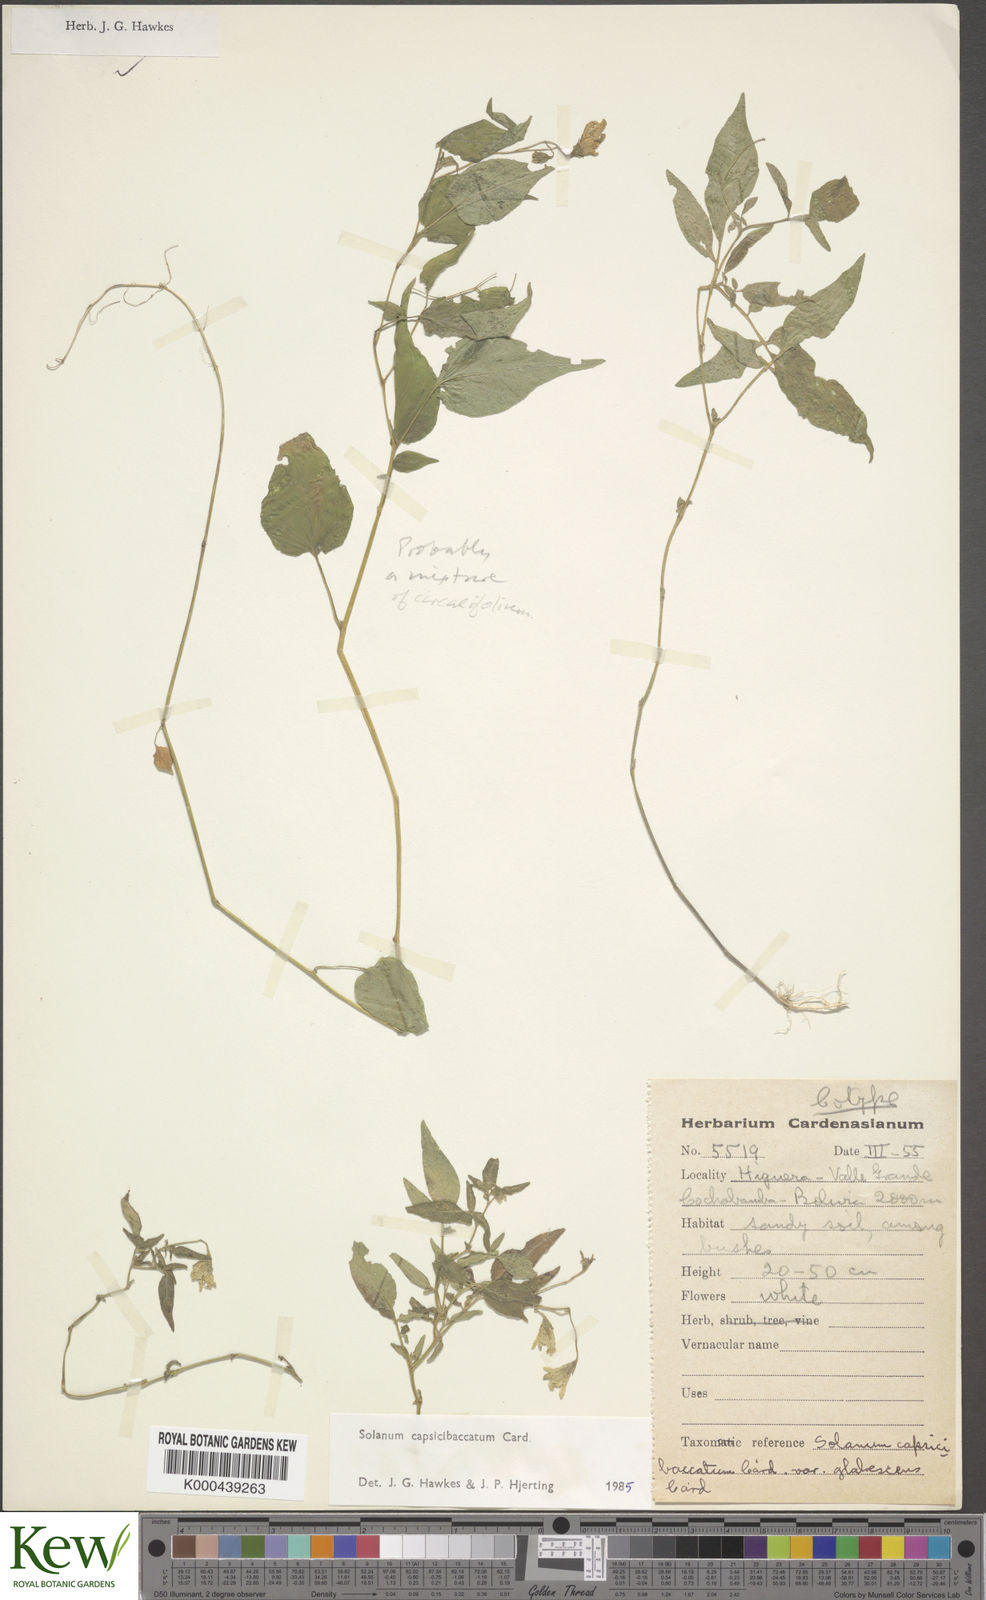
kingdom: Plantae
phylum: Tracheophyta
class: Magnoliopsida
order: Solanales
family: Solanaceae
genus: Solanum
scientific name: Solanum stipuloideum
